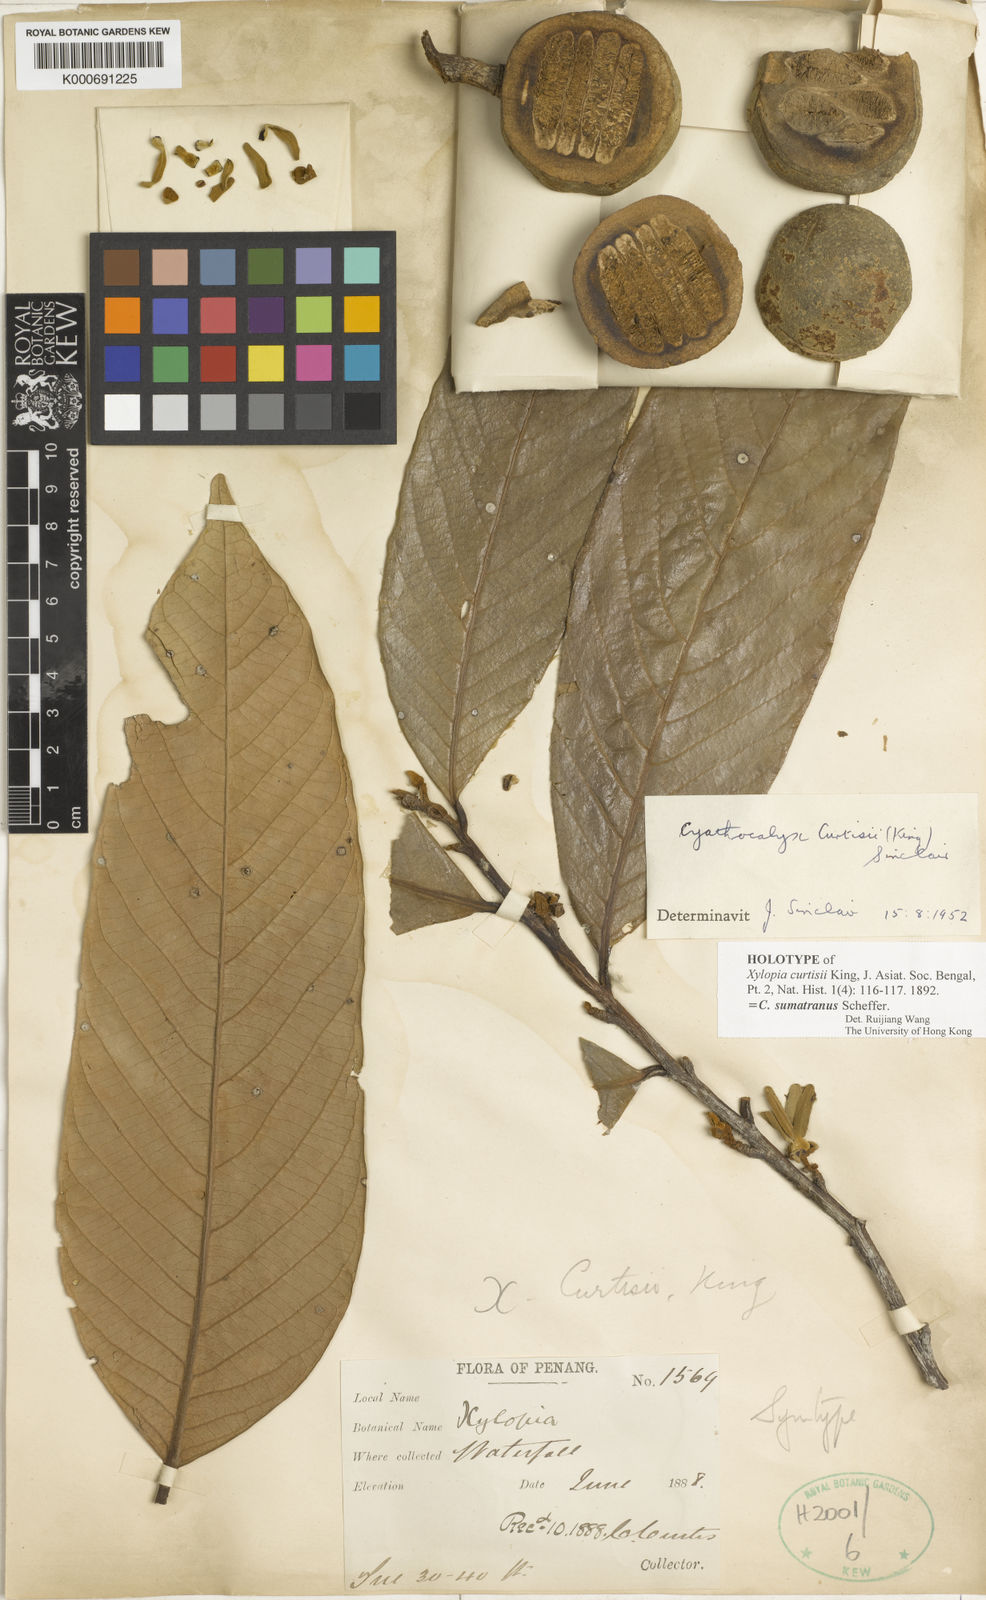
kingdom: Plantae
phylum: Tracheophyta
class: Magnoliopsida
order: Magnoliales
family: Annonaceae
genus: Cyathocalyx
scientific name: Cyathocalyx sumatranus
